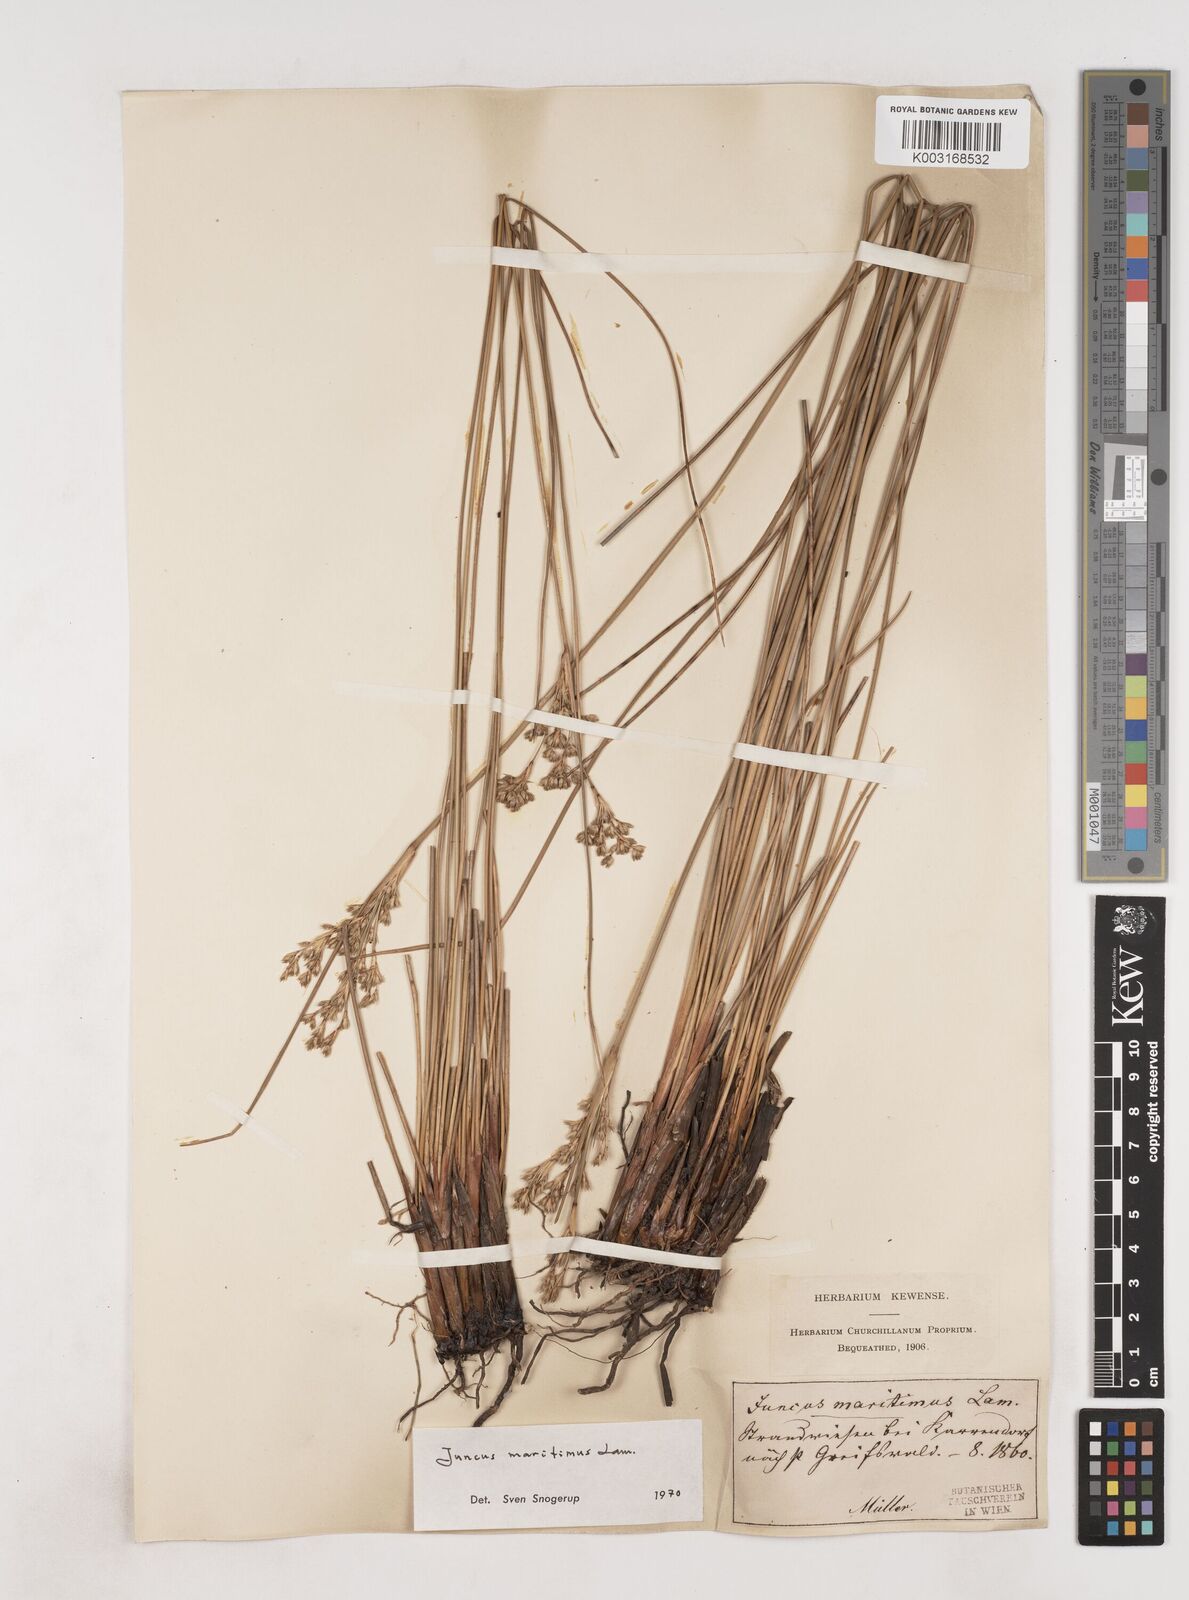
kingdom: Plantae
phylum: Tracheophyta
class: Liliopsida
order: Poales
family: Juncaceae
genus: Juncus
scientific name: Juncus maritimus
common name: Sea rush
